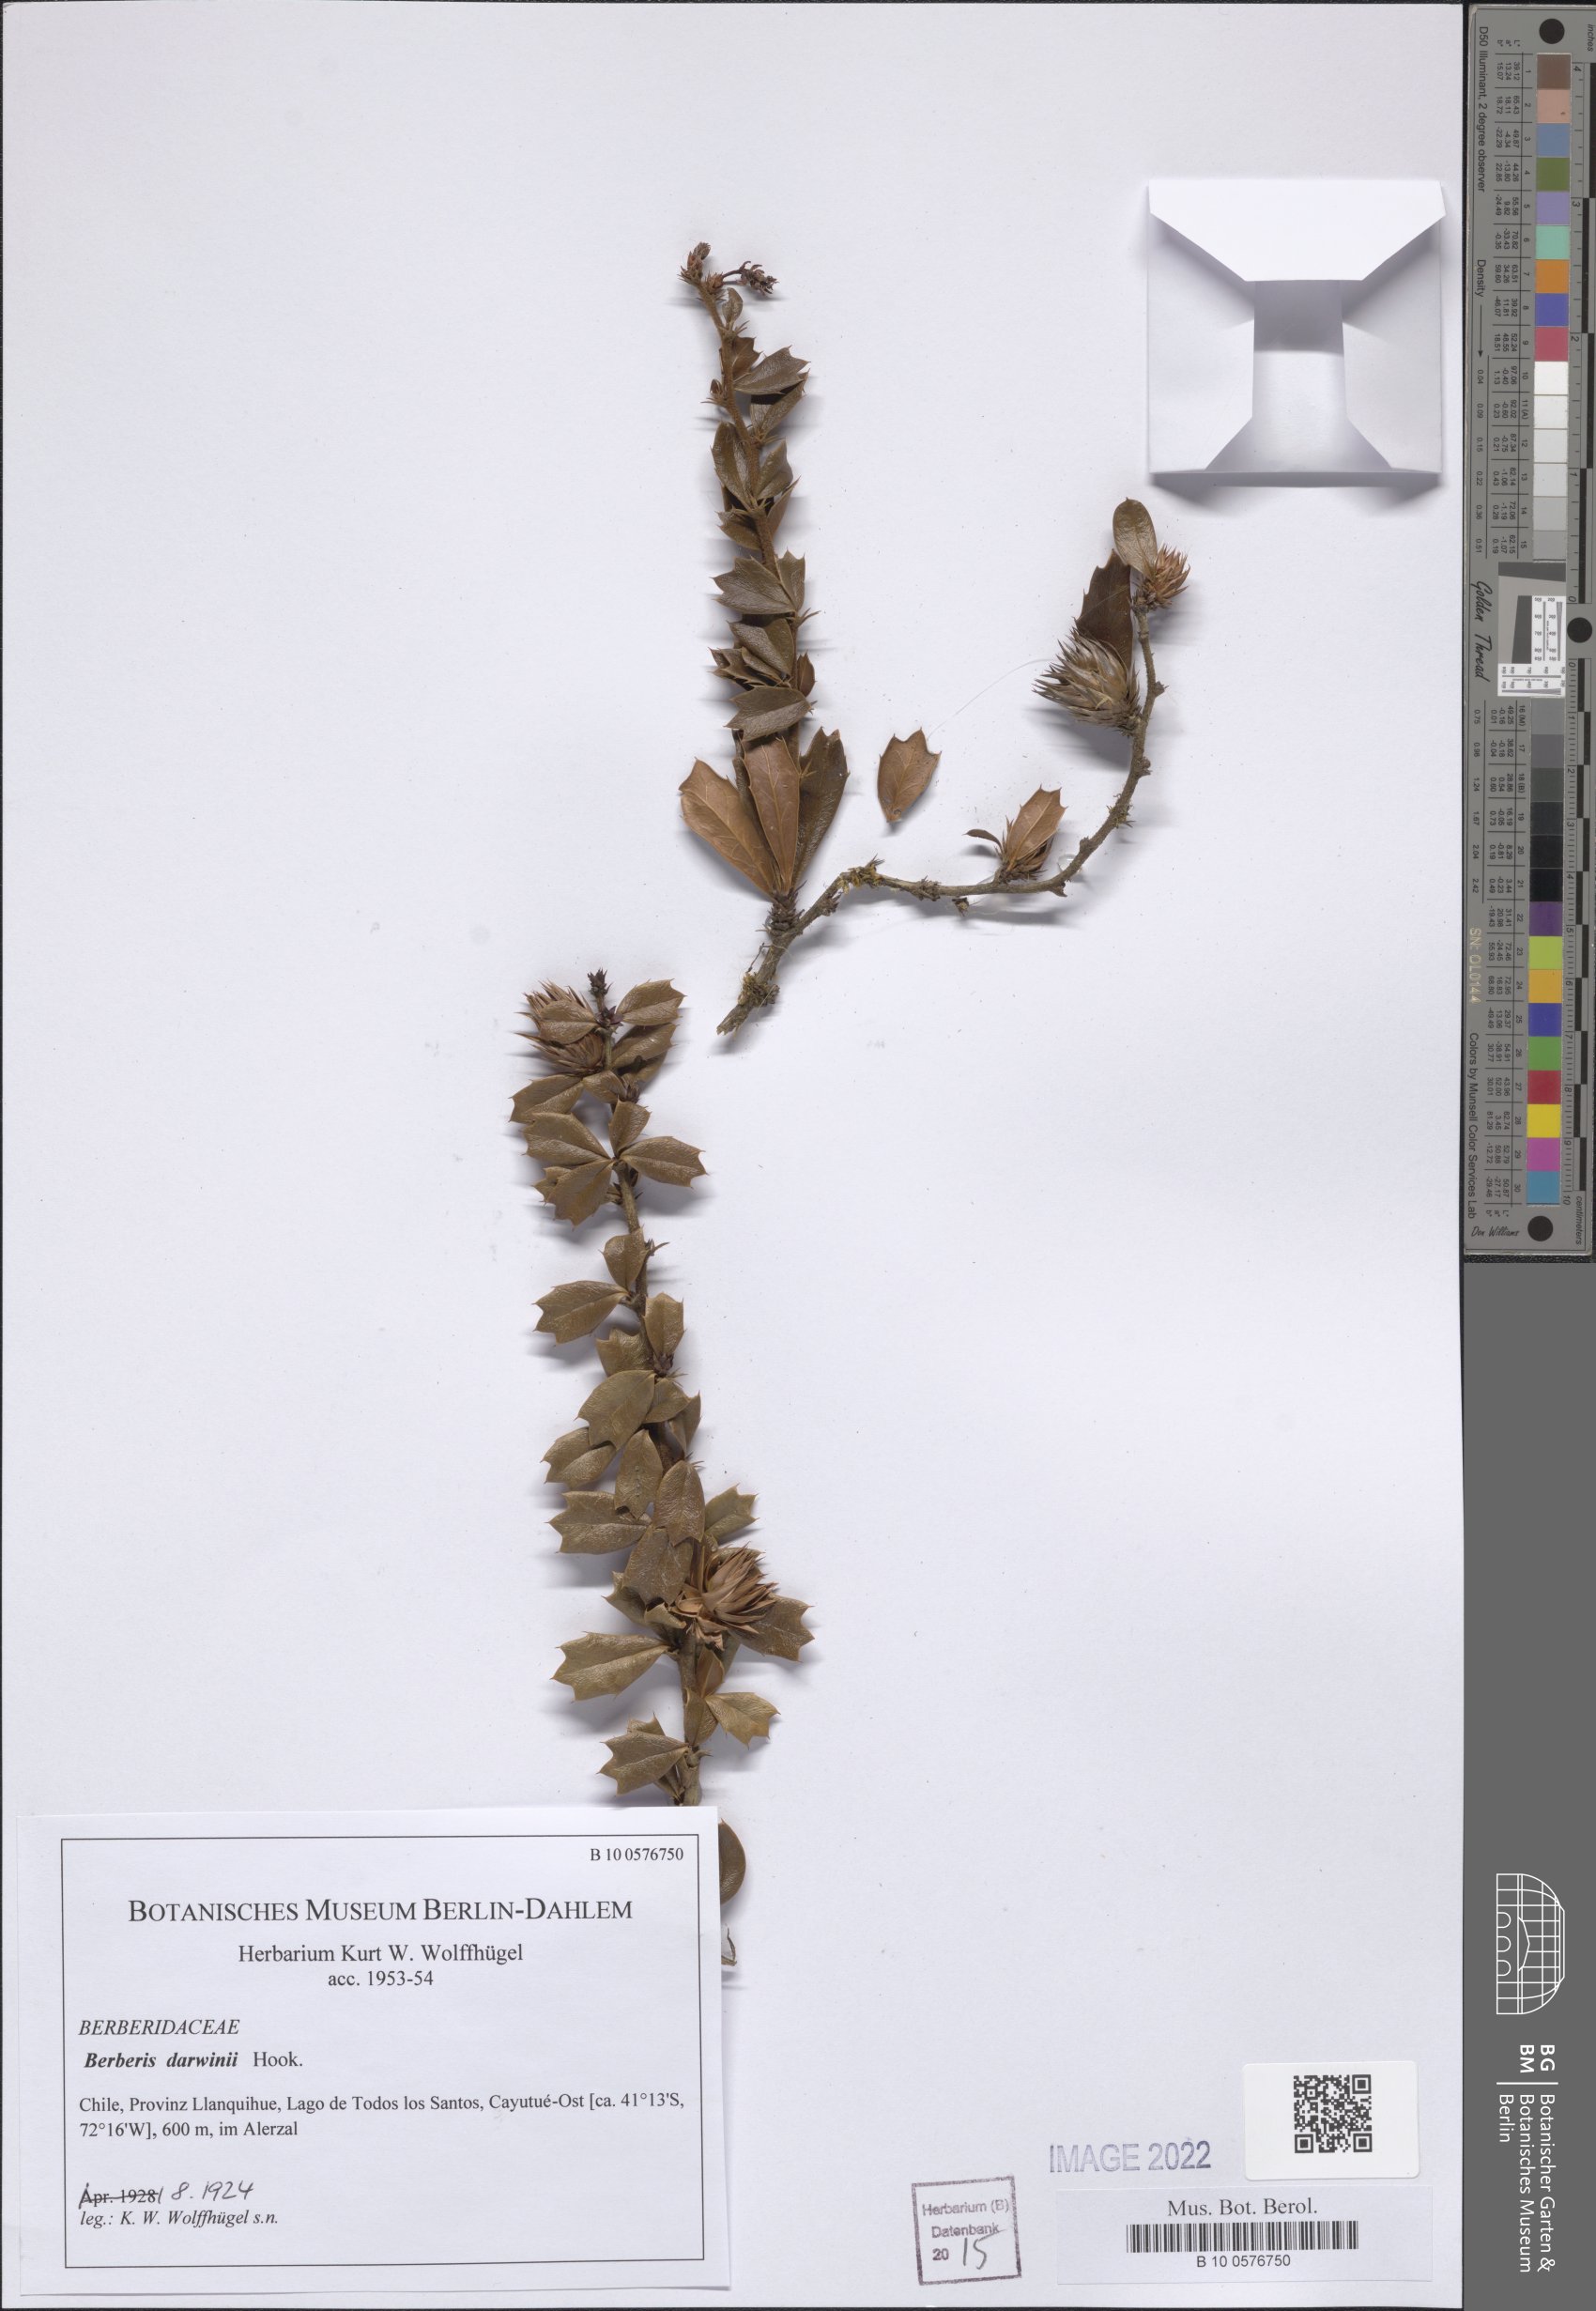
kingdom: Plantae
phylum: Tracheophyta
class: Magnoliopsida
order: Ranunculales
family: Berberidaceae
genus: Berberis
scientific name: Berberis darwinii
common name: Darwin's barberry
